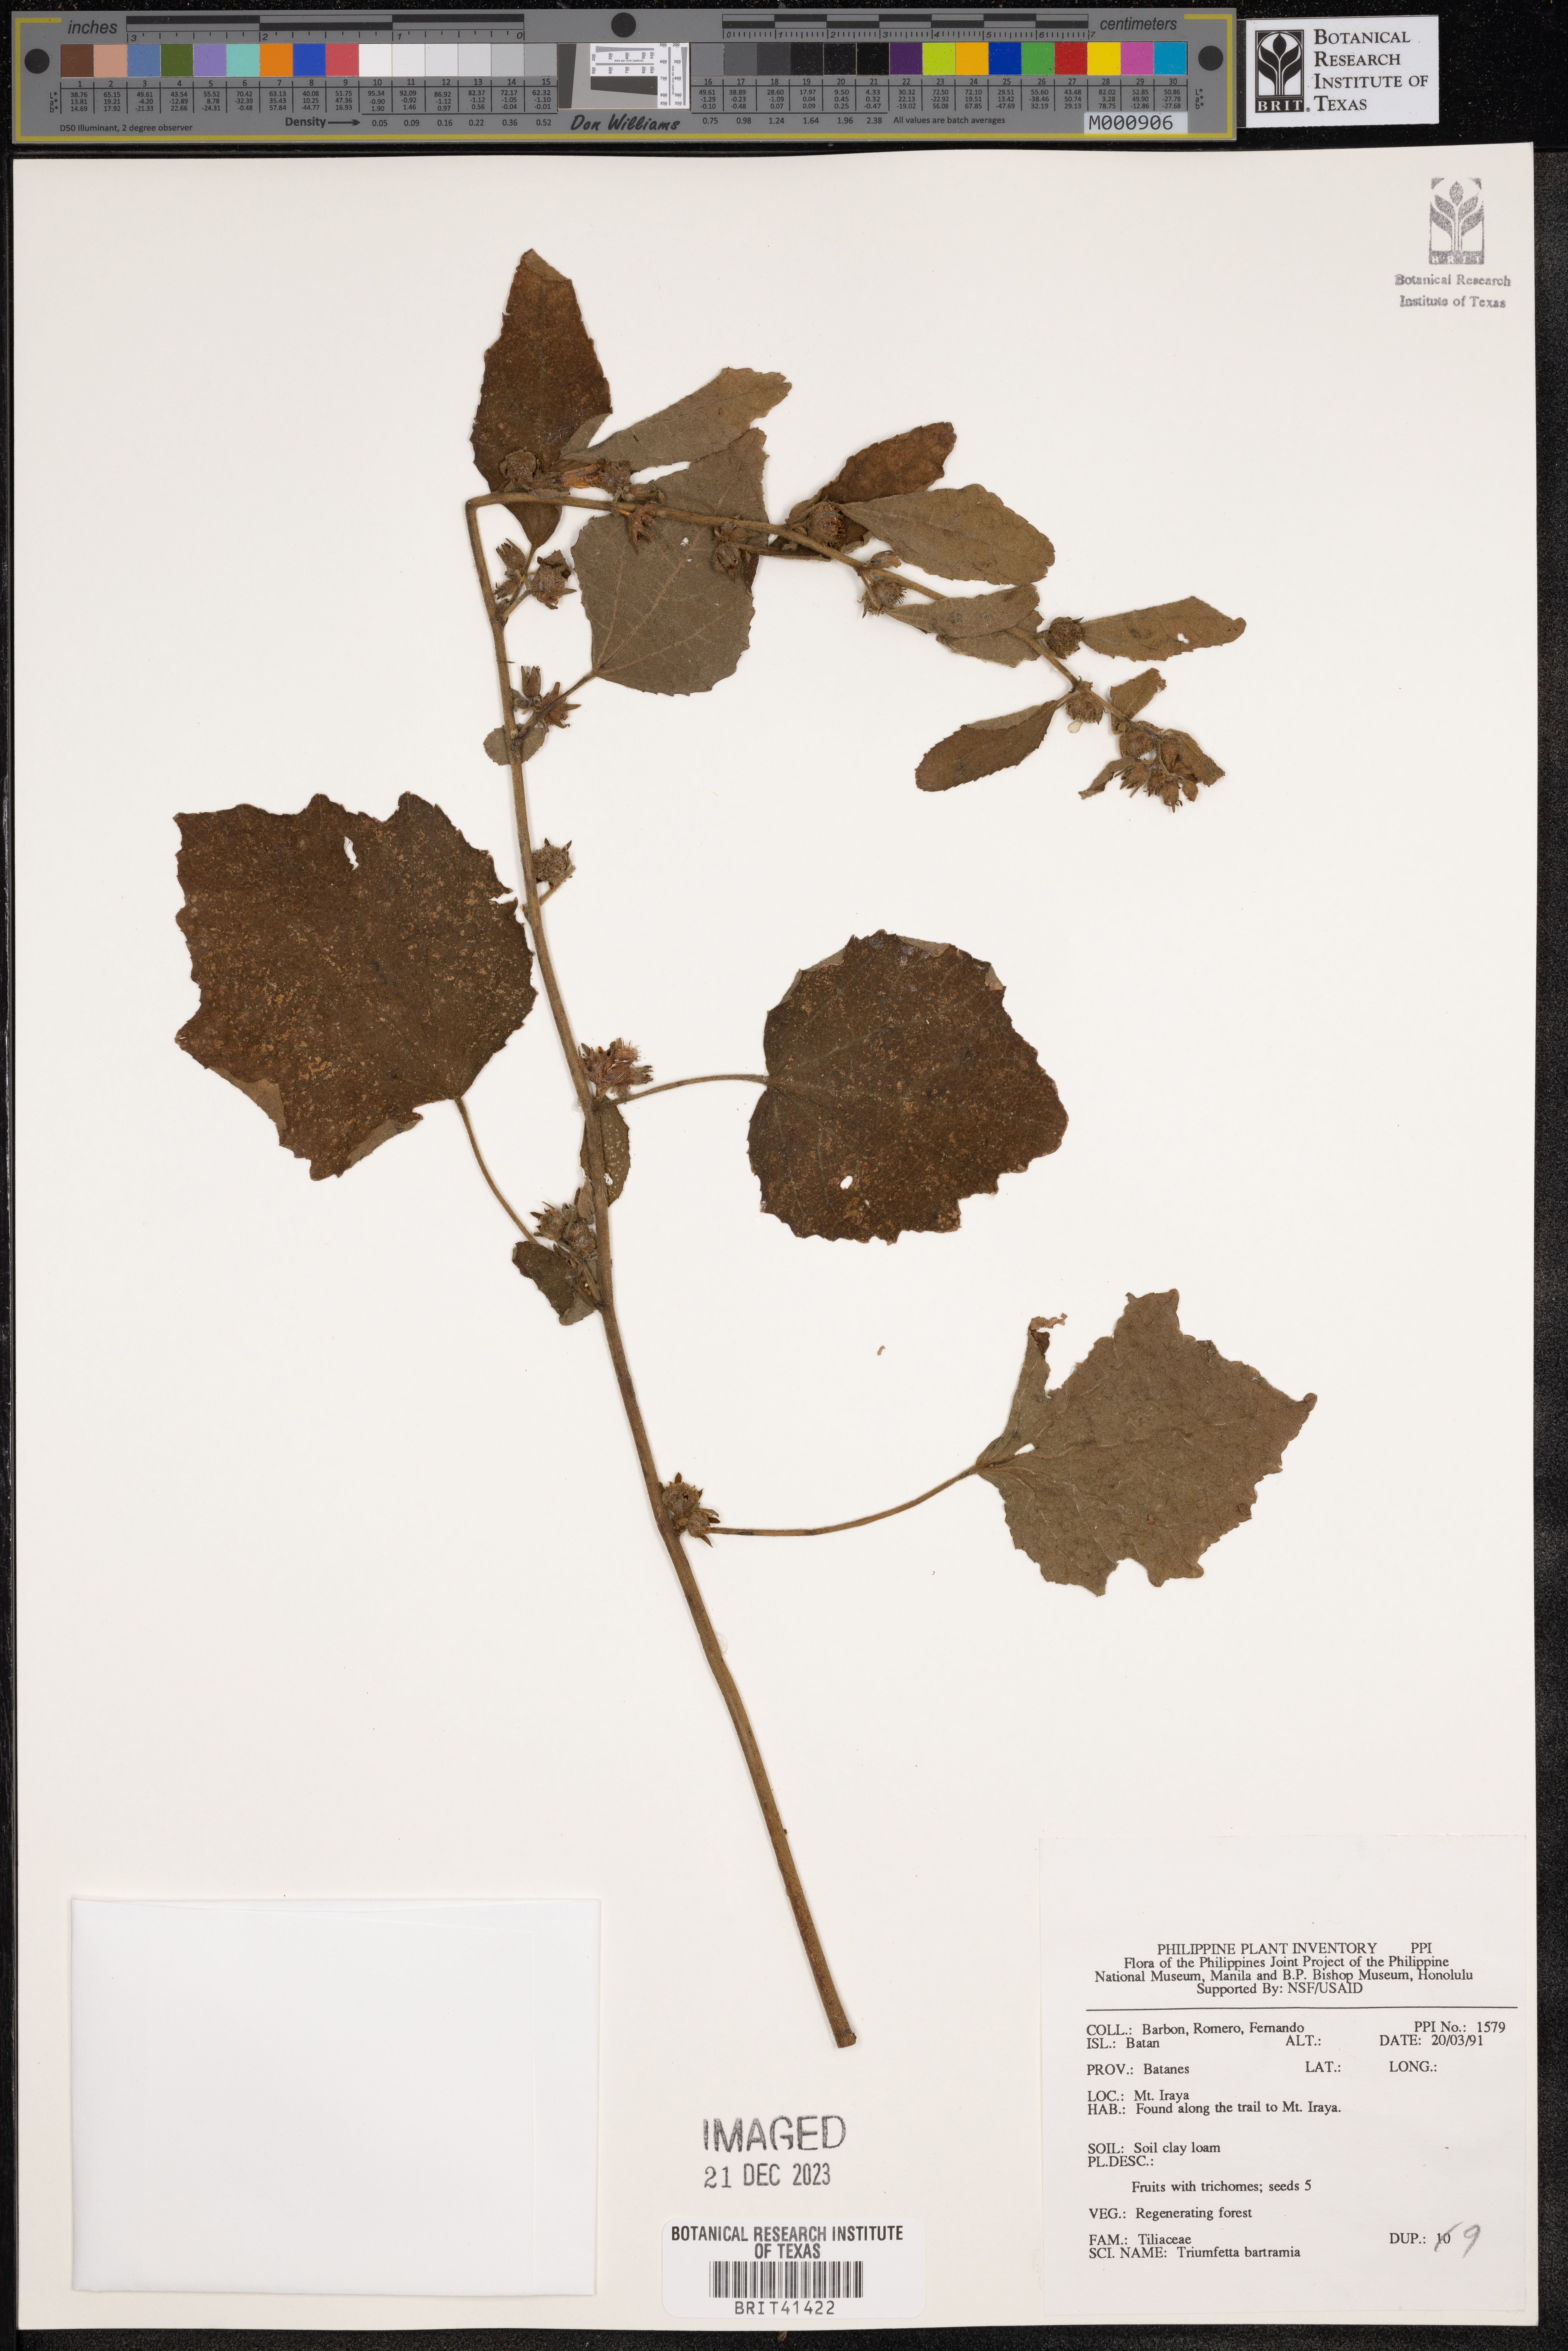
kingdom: Plantae
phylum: Tracheophyta
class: Magnoliopsida
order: Malvales
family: Malvaceae
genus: Triumfetta
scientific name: Triumfetta rhomboidea
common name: Diamond burbark
